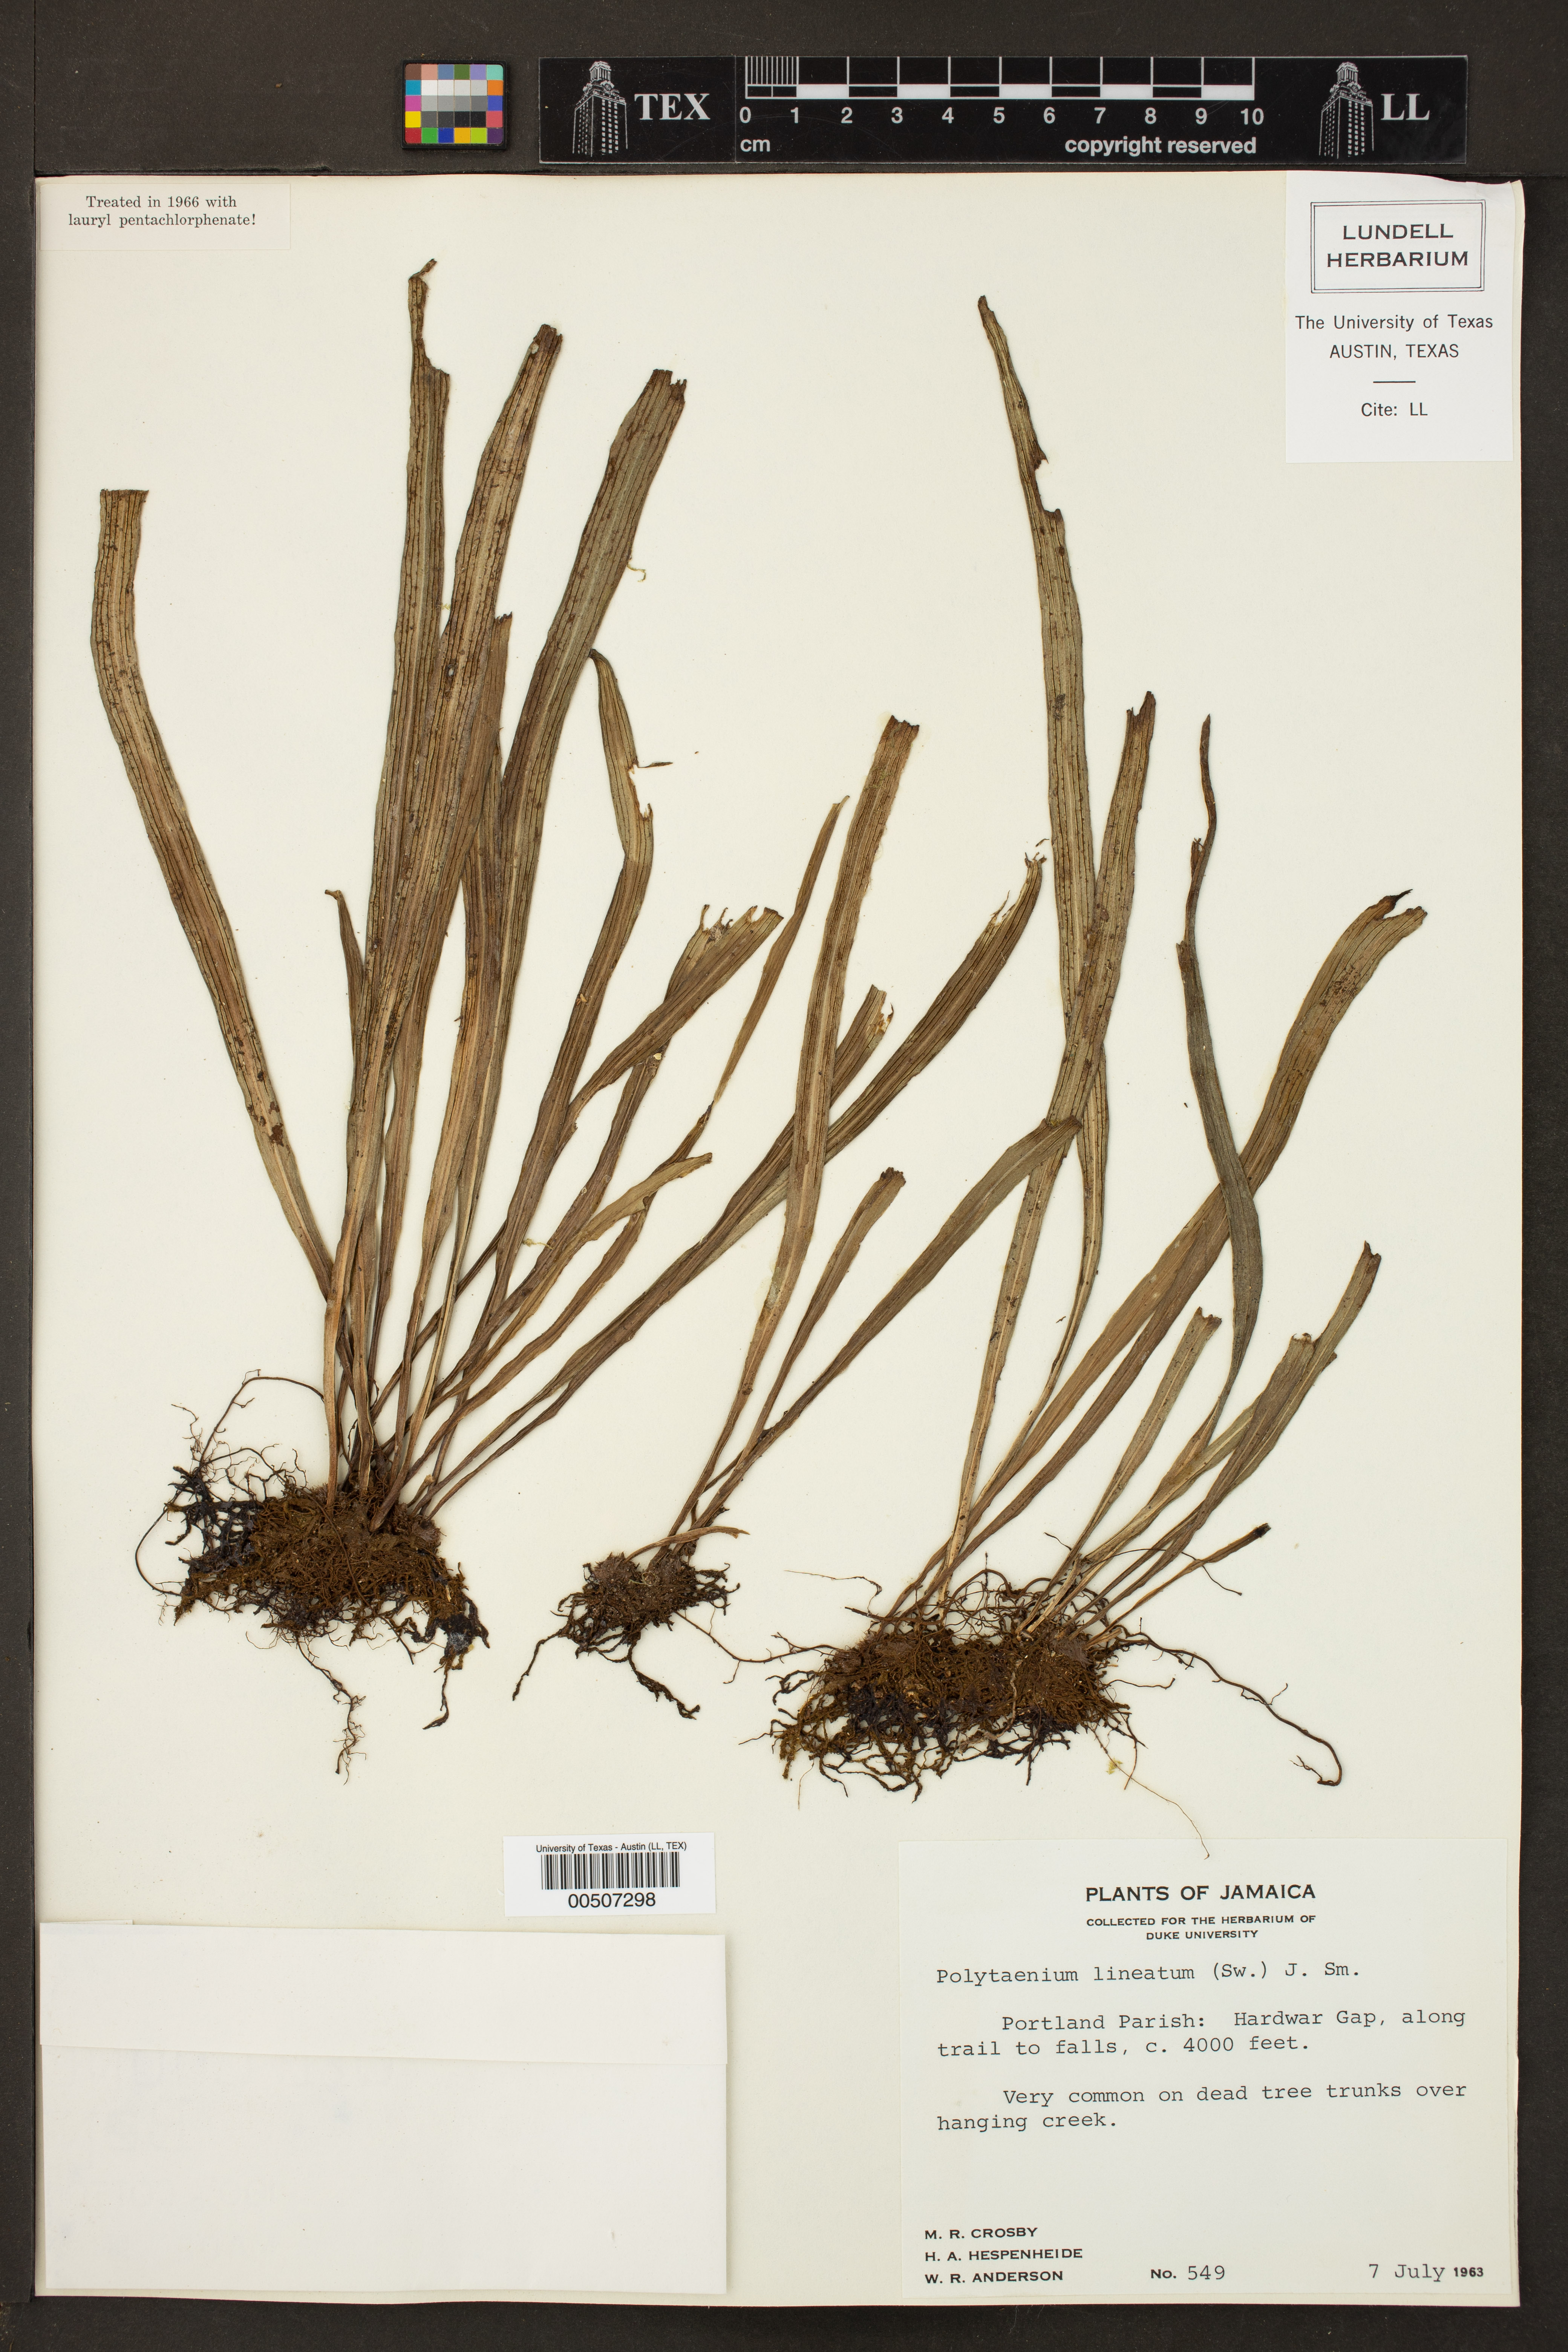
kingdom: Plantae
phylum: Tracheophyta
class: Polypodiopsida
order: Polypodiales
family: Pteridaceae
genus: Polytaenium
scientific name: Polytaenium lineatum
